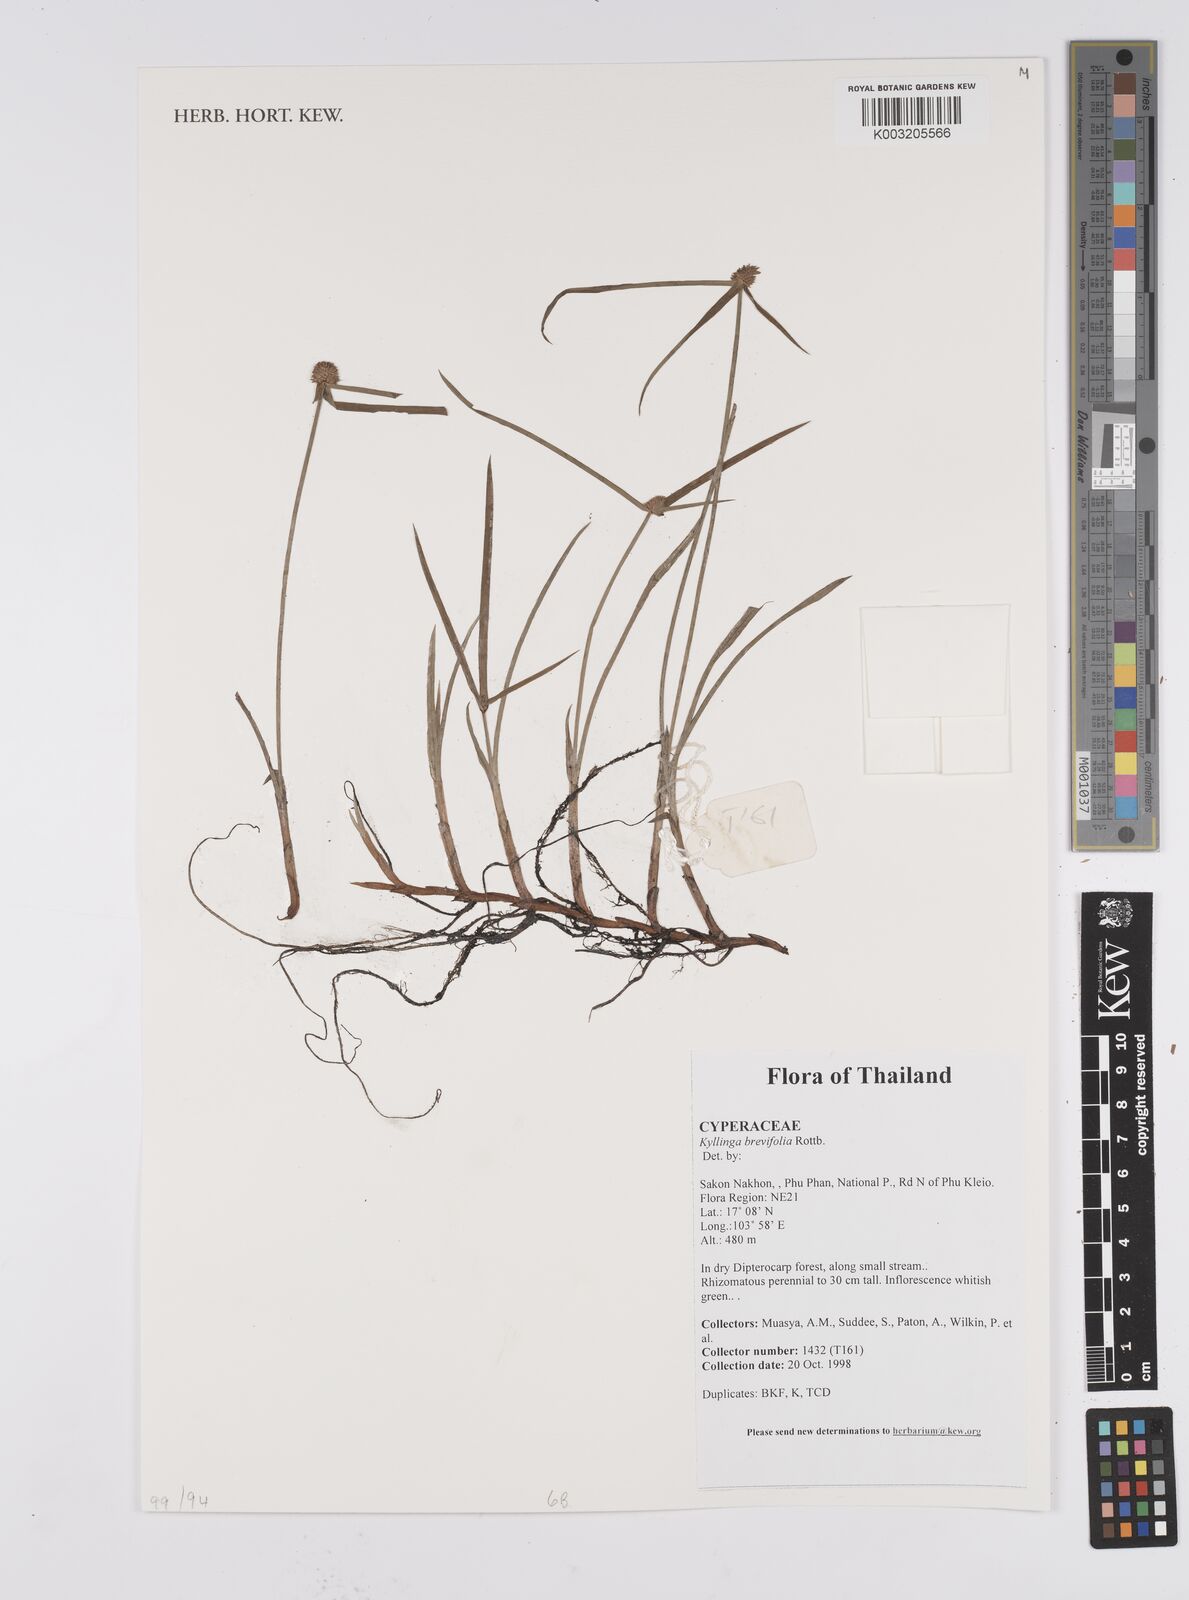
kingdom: Plantae
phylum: Tracheophyta
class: Liliopsida
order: Poales
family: Cyperaceae
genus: Cyperus
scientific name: Cyperus brevifolius
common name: Globe kyllinga
